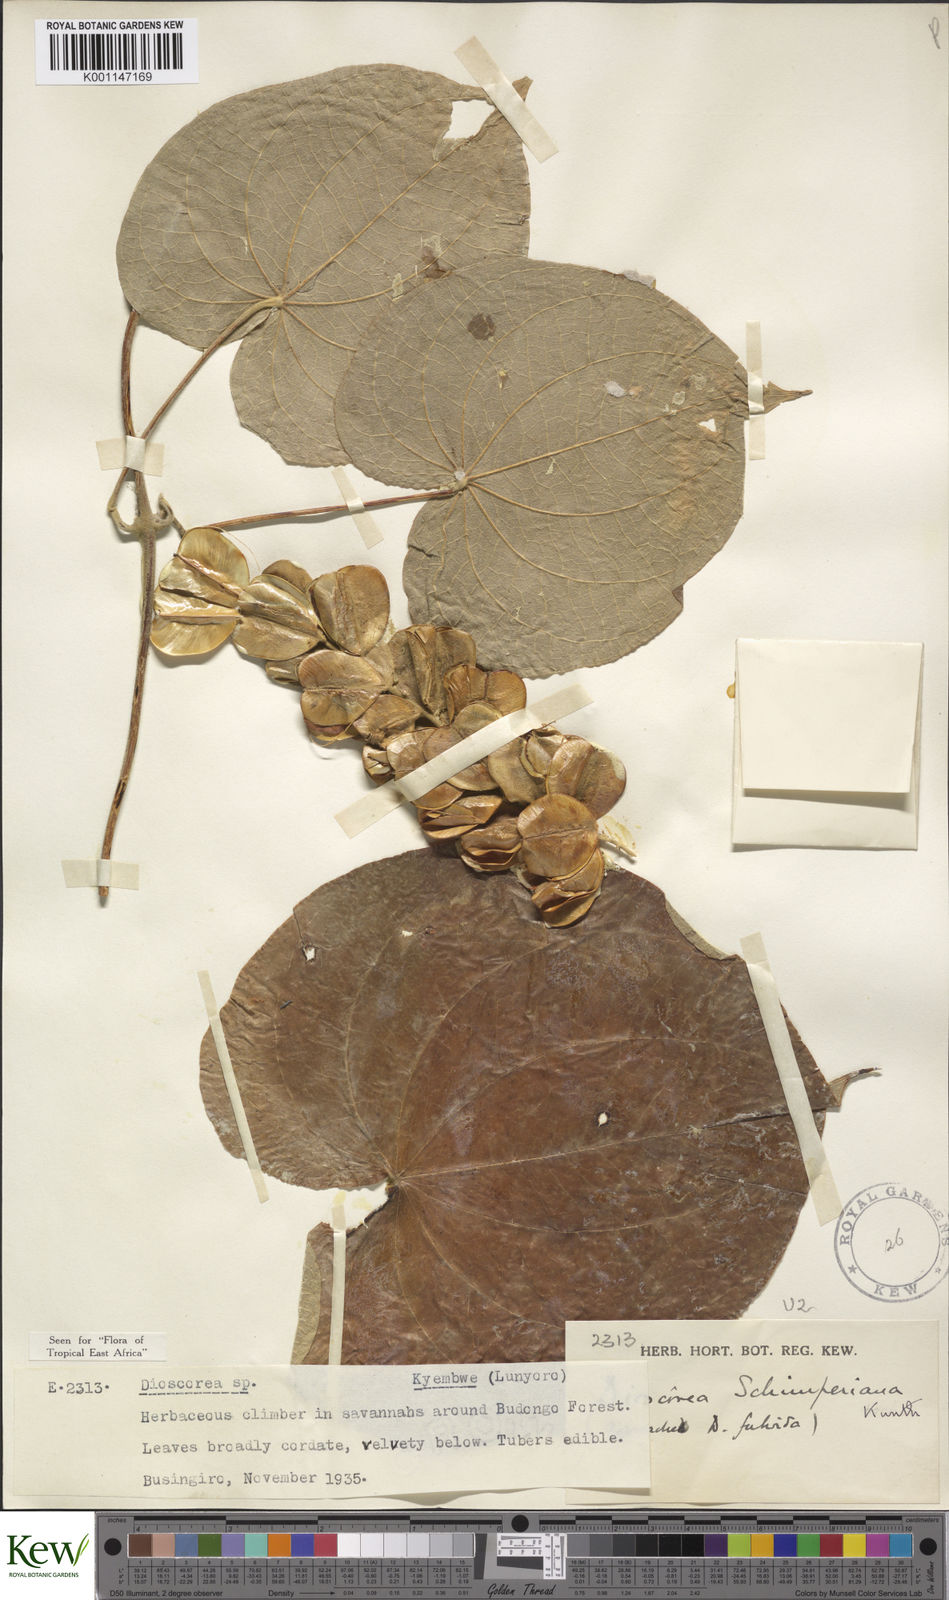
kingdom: Plantae
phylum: Tracheophyta
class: Liliopsida
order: Dioscoreales
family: Dioscoreaceae
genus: Dioscorea
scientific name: Dioscorea schimperiana
